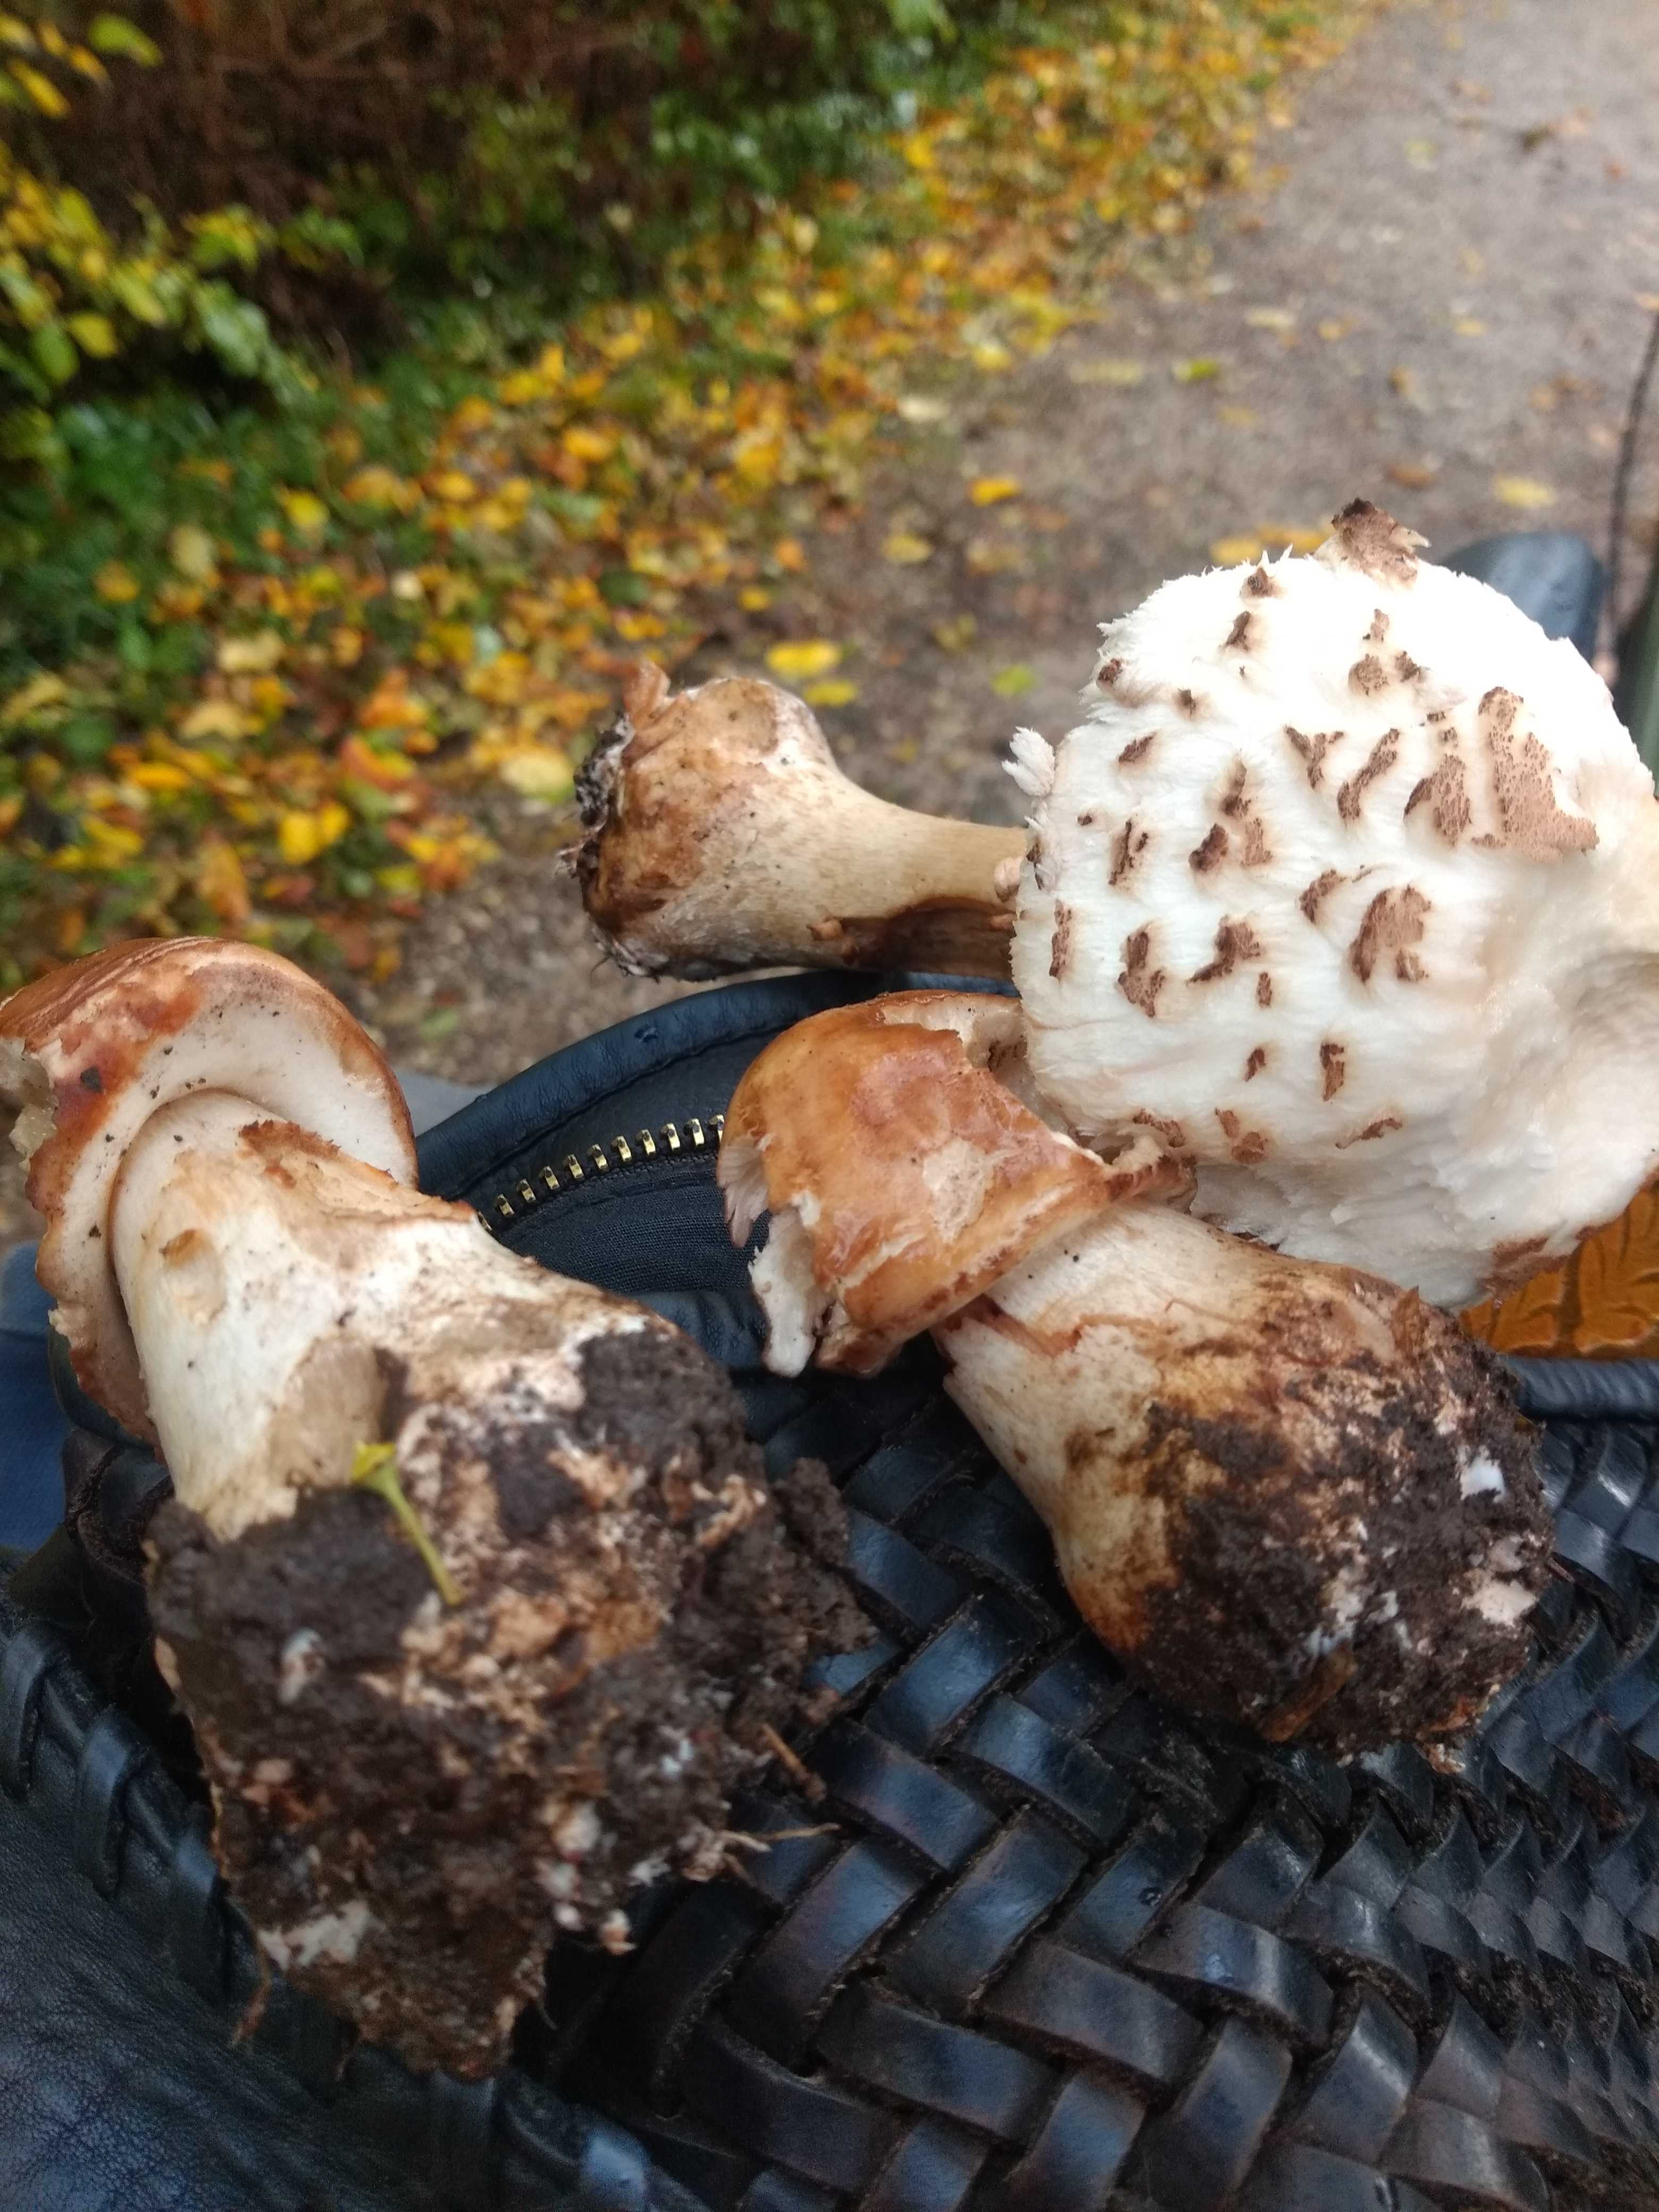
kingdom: Fungi
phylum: Basidiomycota
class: Agaricomycetes
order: Agaricales
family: Agaricaceae
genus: Chlorophyllum
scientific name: Chlorophyllum brunneum
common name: giftig rabarberhat
